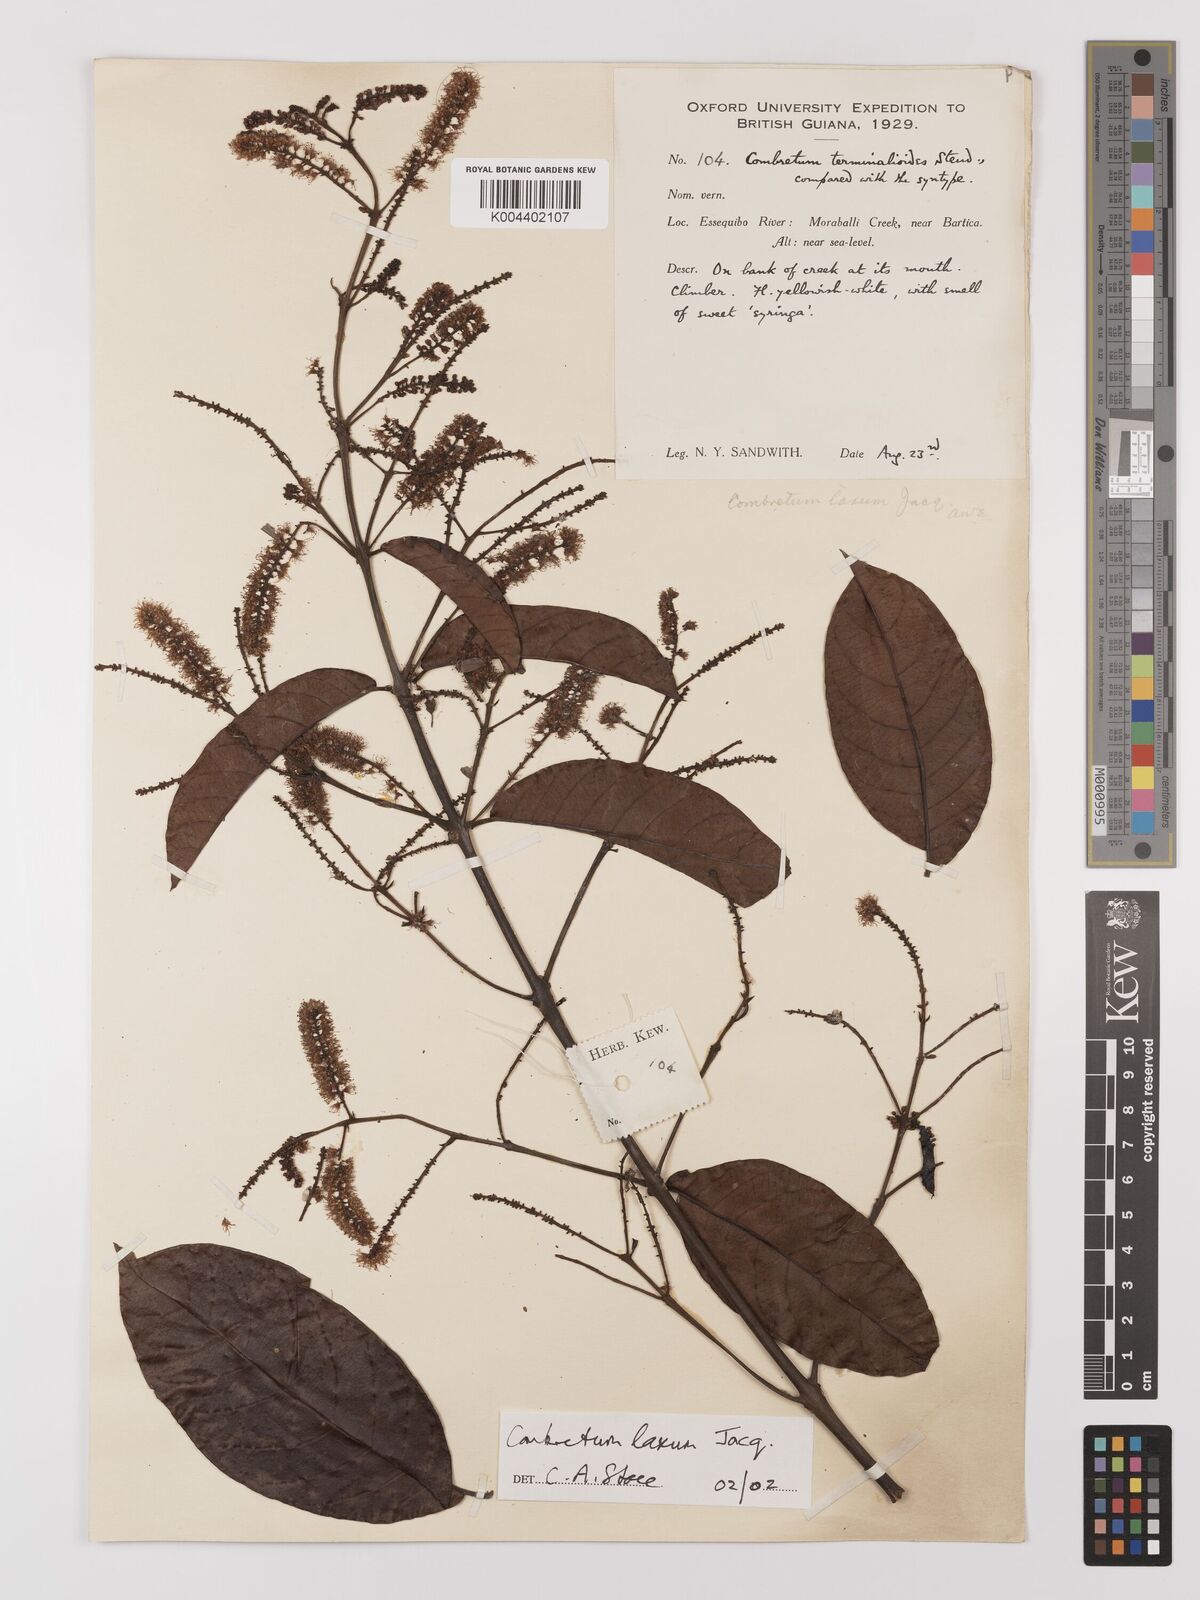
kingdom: Plantae
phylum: Tracheophyta
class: Magnoliopsida
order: Myrtales
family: Combretaceae
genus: Combretum
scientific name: Combretum
